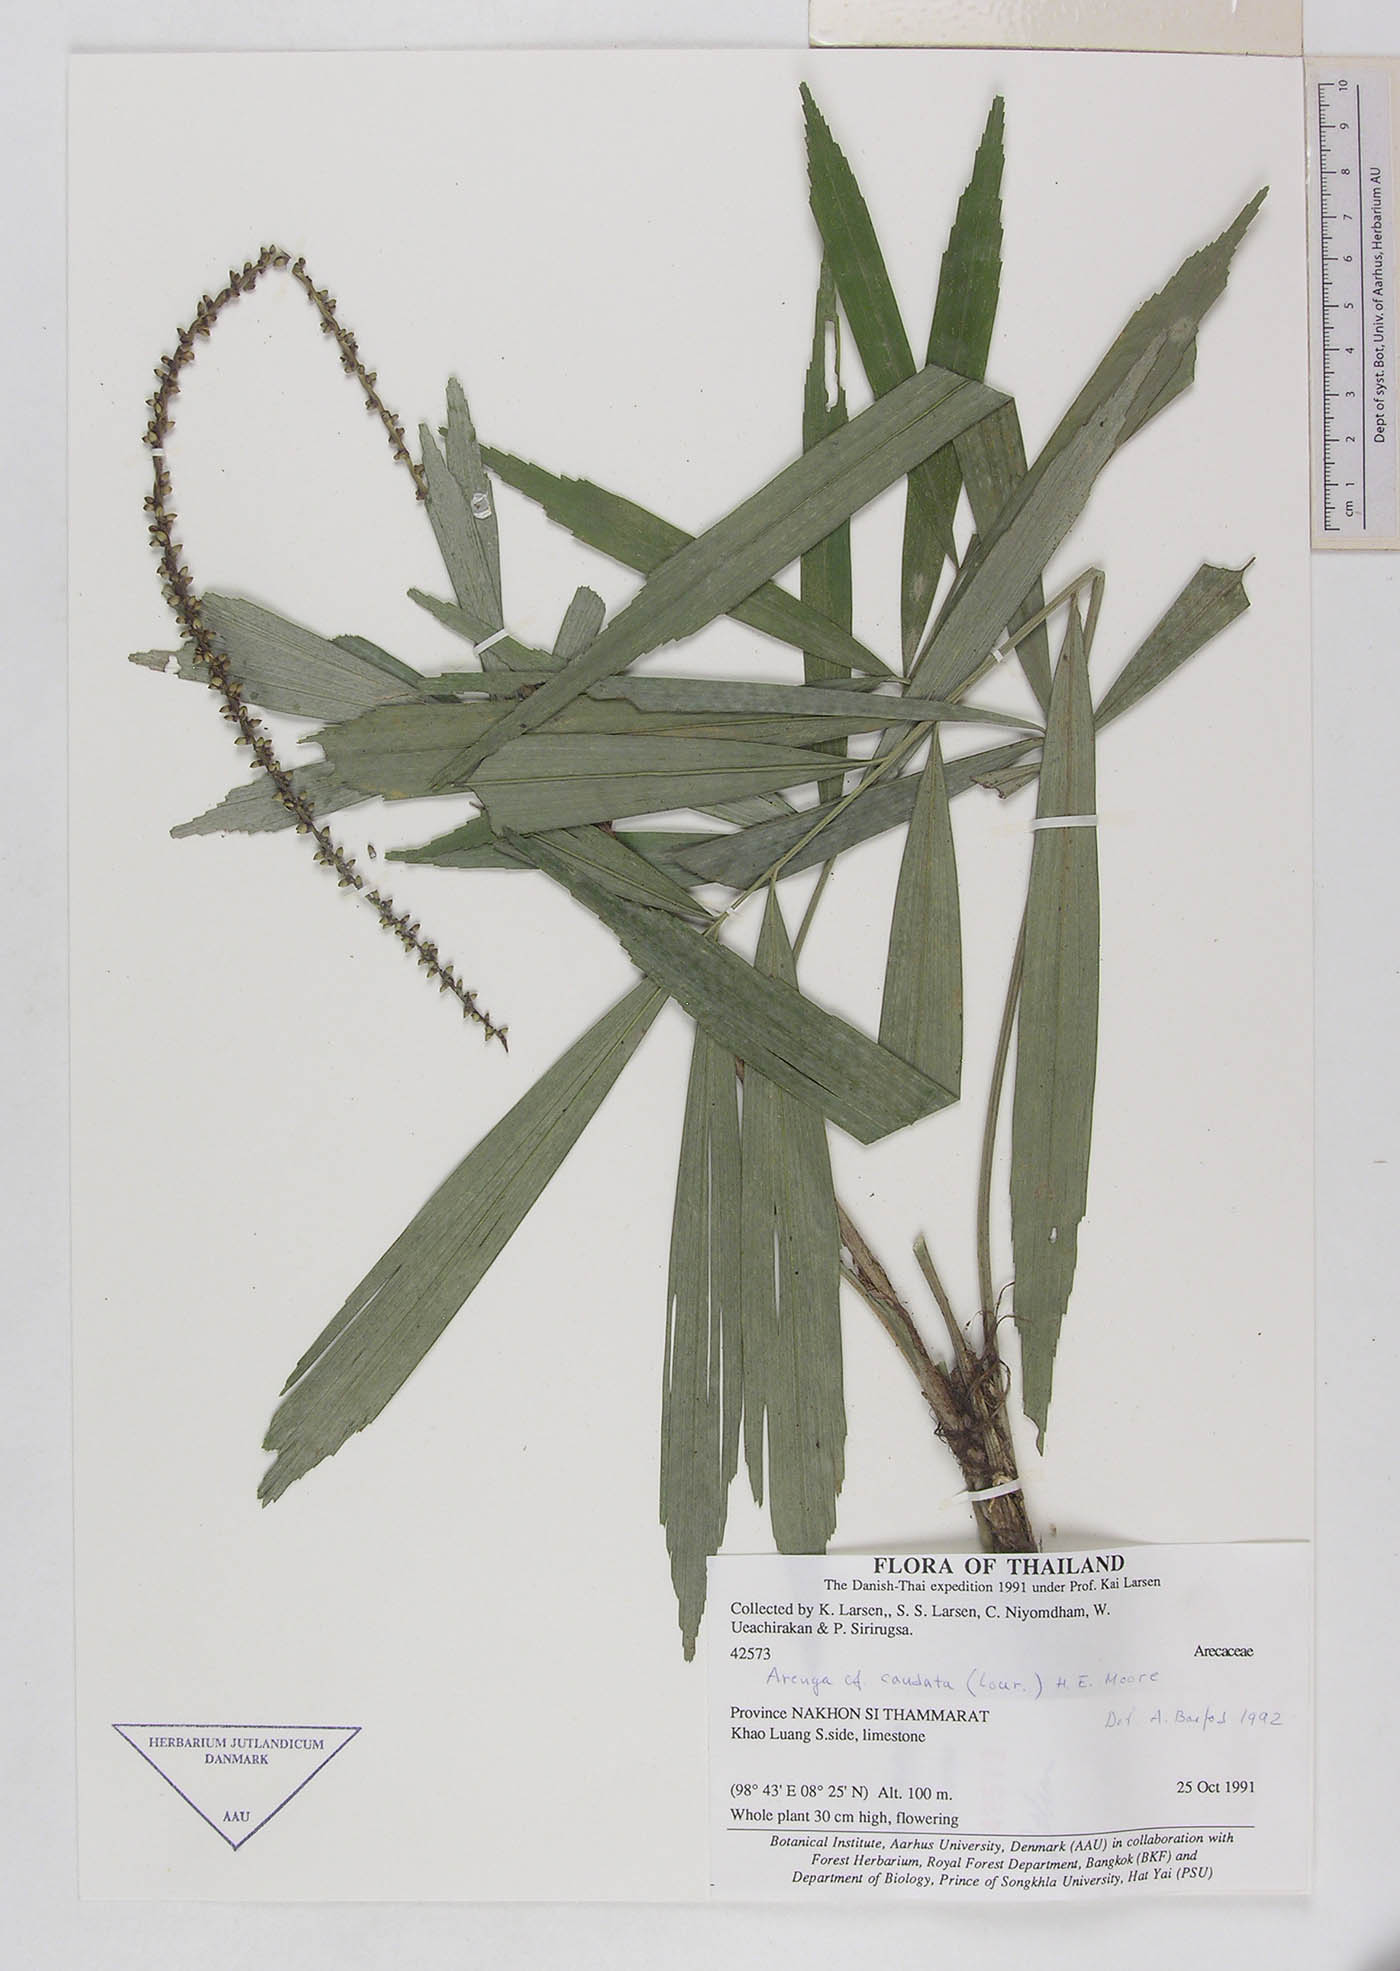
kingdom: Plantae
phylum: Tracheophyta
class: Liliopsida
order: Arecales
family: Arecaceae
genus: Arenga
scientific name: Arenga caudata
